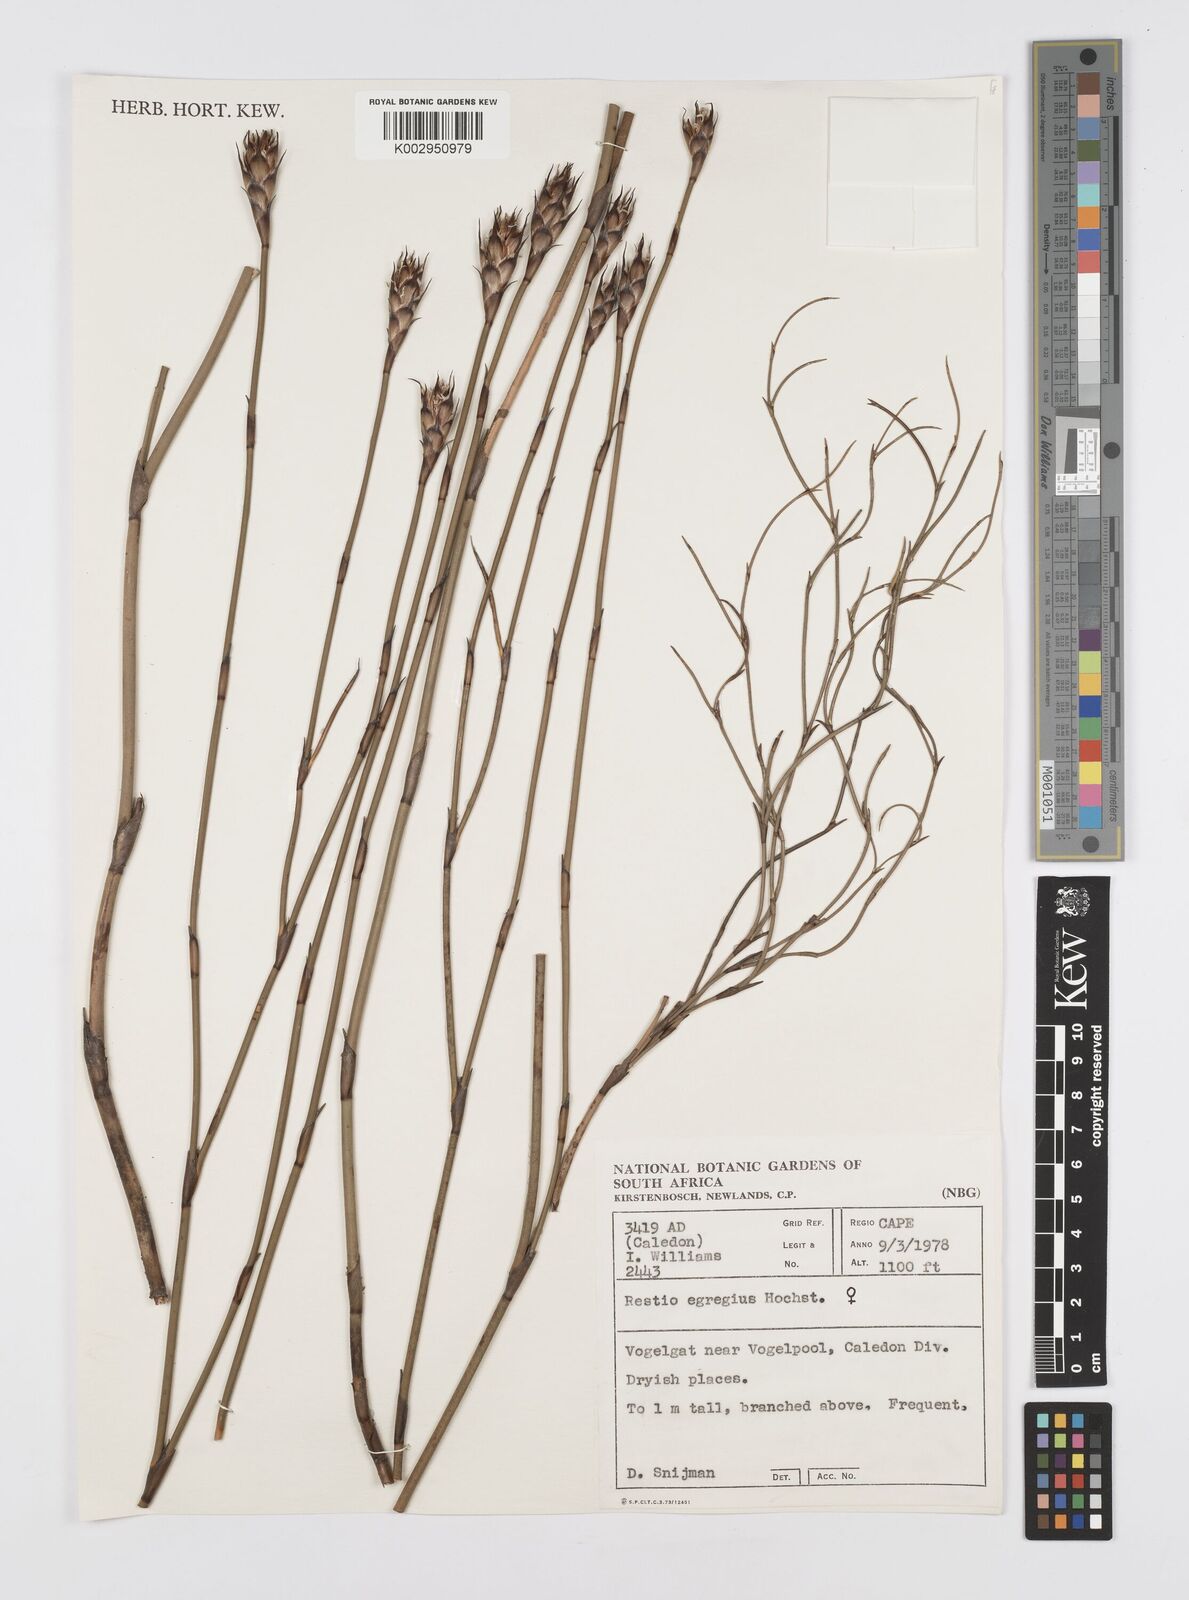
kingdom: Plantae
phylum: Tracheophyta
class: Liliopsida
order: Poales
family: Restionaceae
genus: Restio
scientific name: Restio egregius
